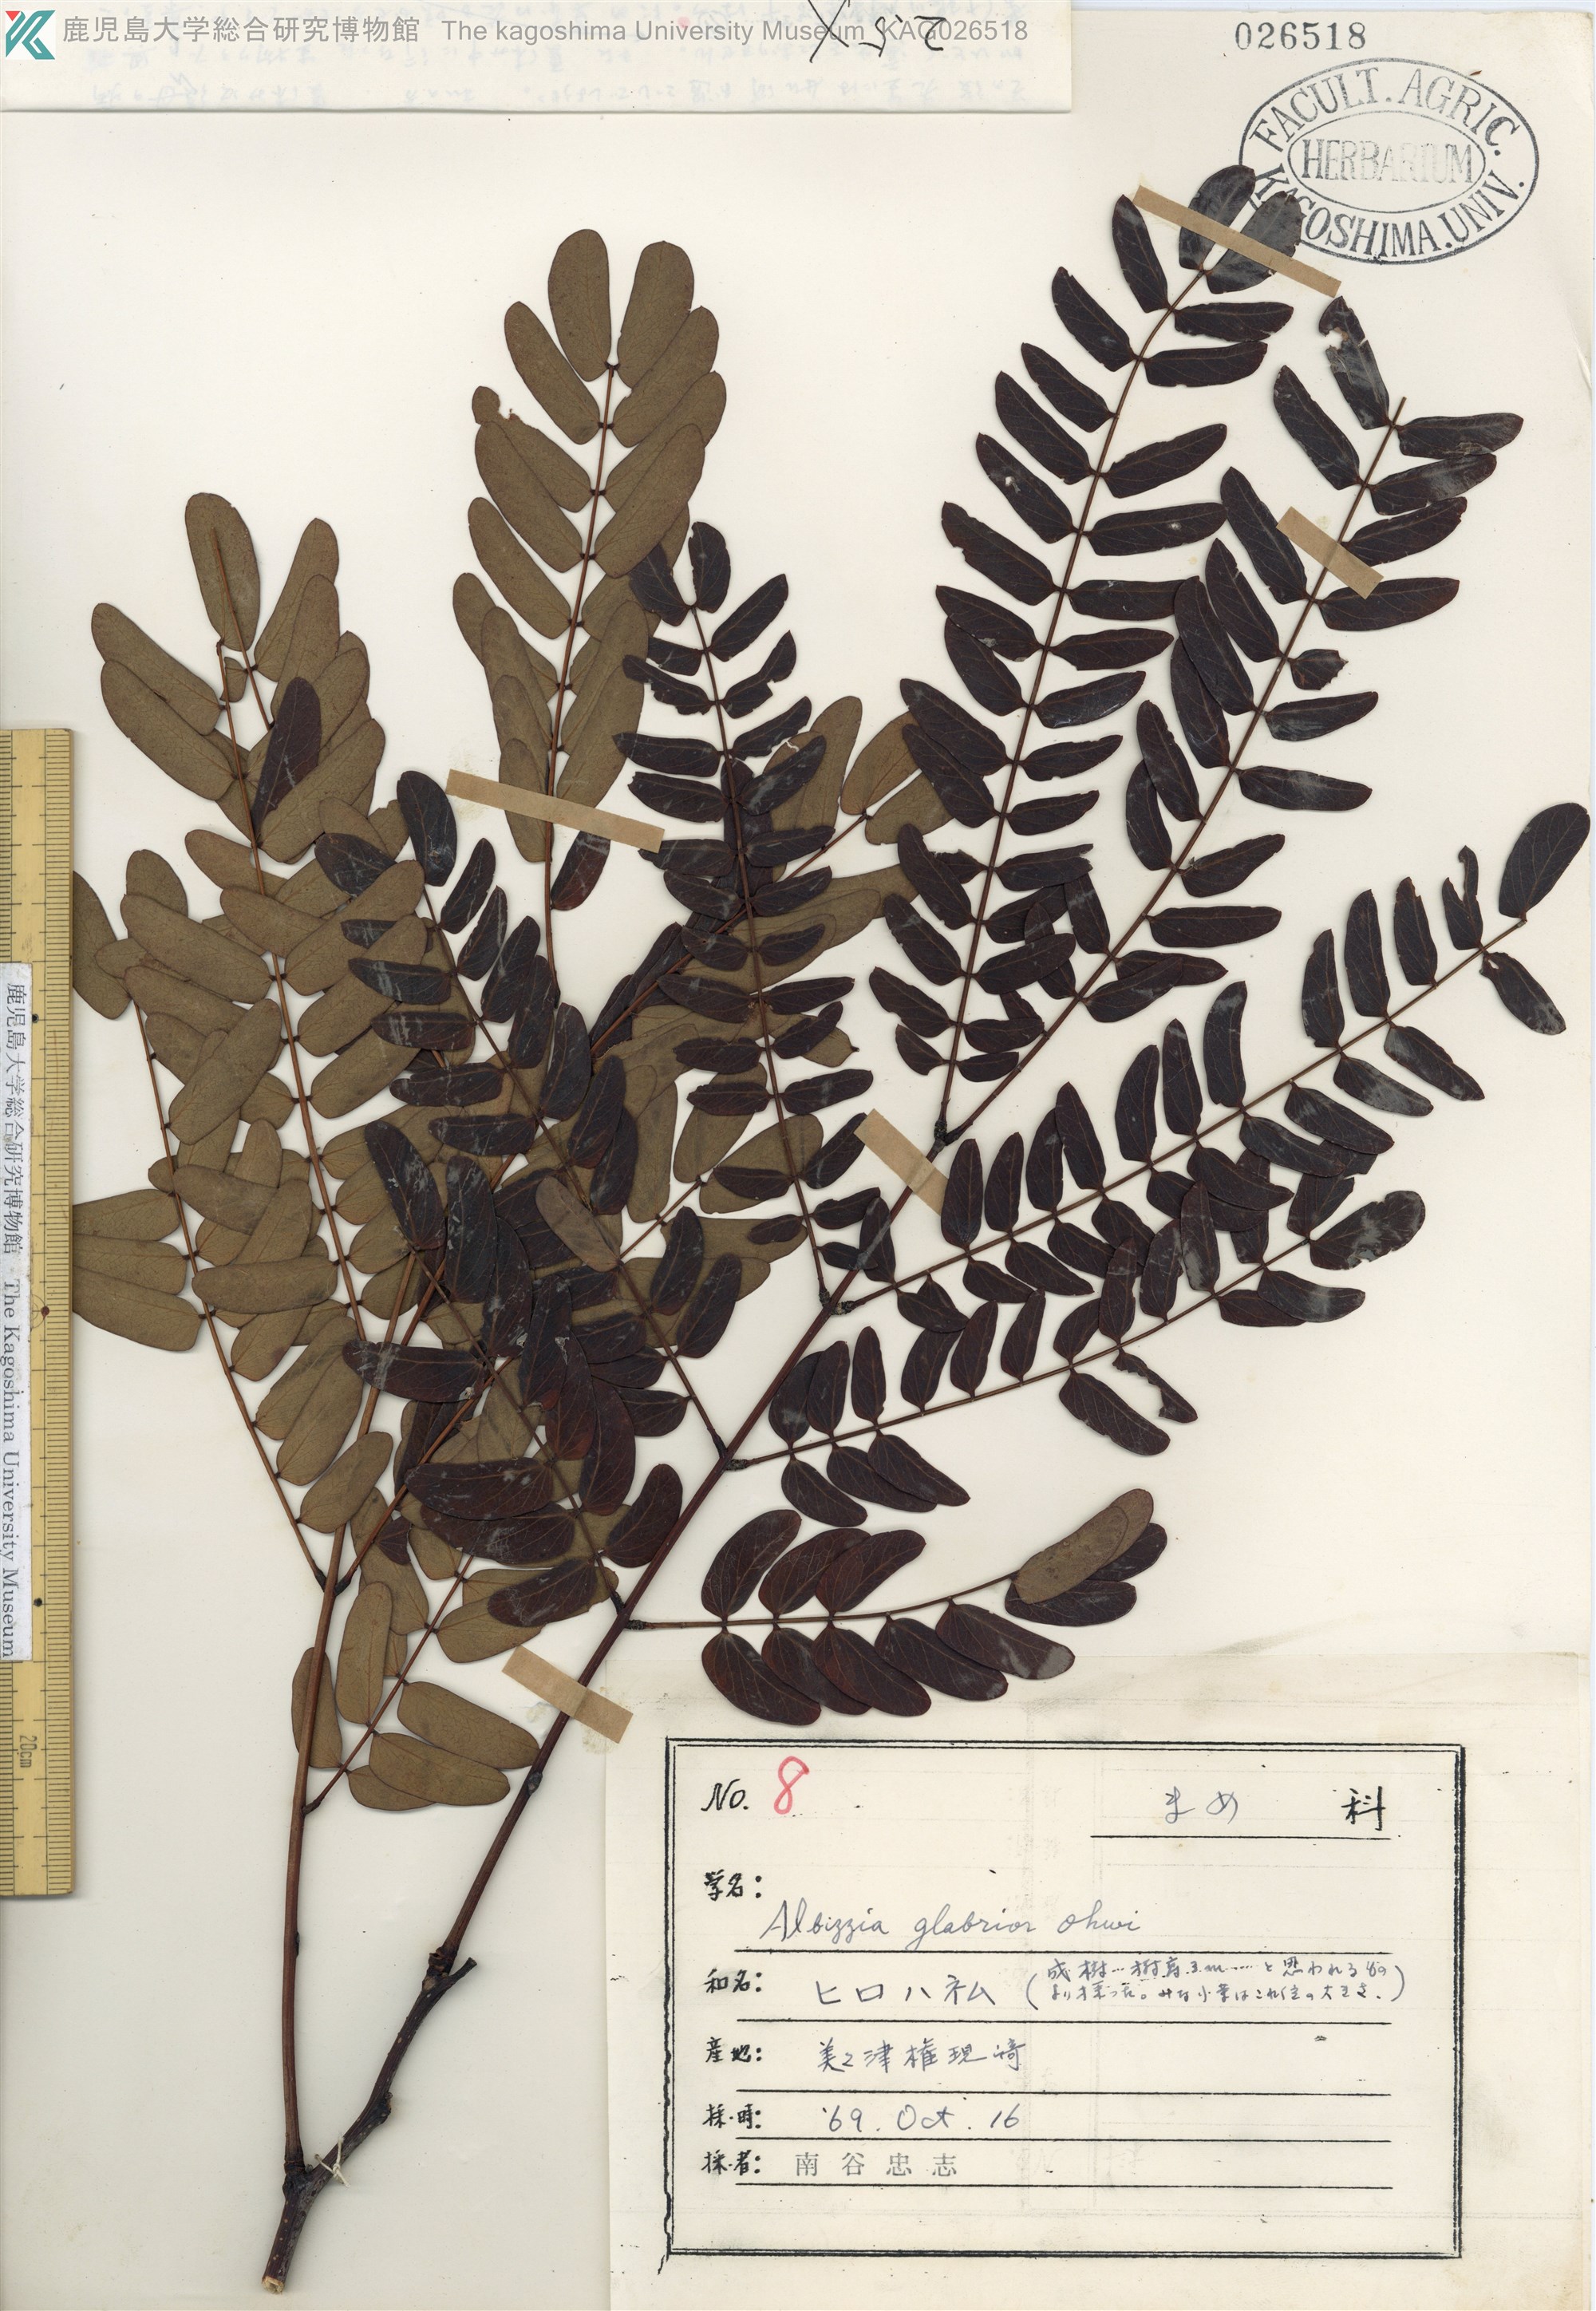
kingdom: Plantae
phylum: Tracheophyta
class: Magnoliopsida
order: Fabales
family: Fabaceae
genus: Albizia
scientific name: Albizia kalkora
